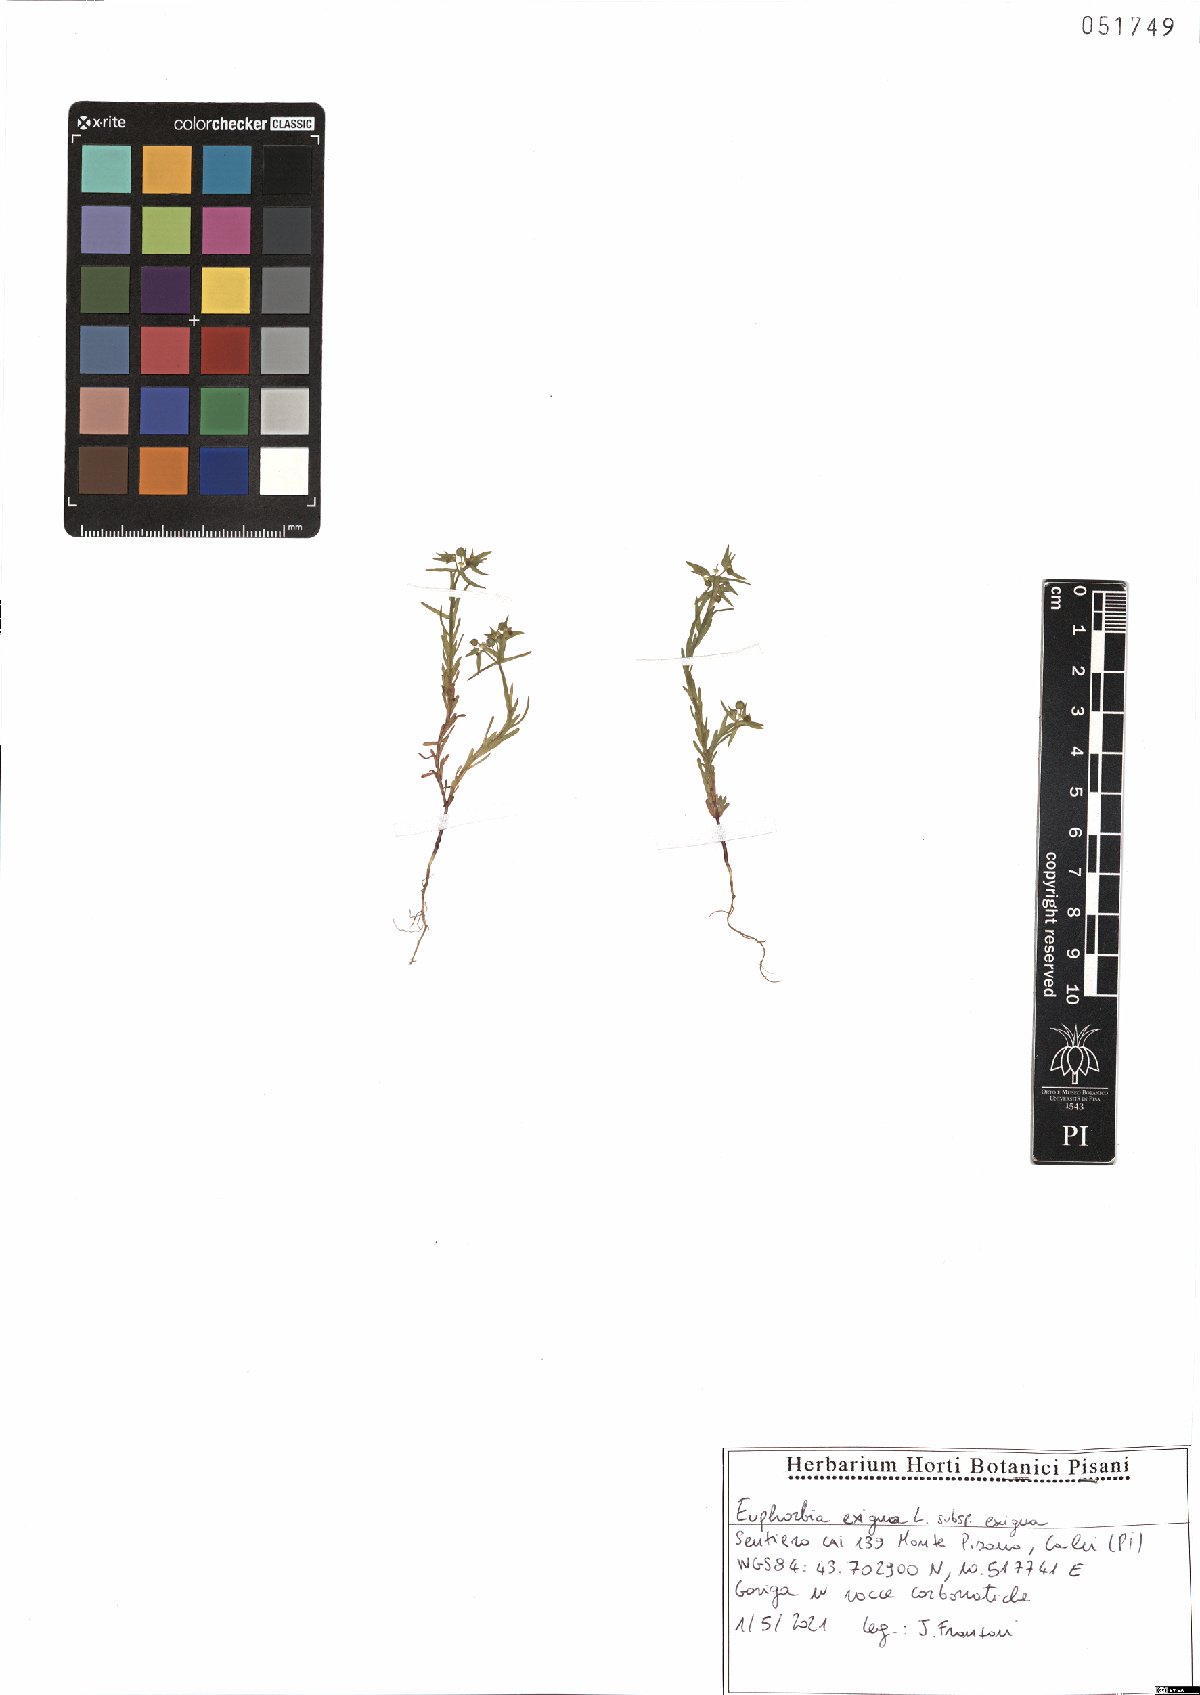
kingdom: Plantae
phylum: Tracheophyta
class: Magnoliopsida
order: Malpighiales
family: Euphorbiaceae
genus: Euphorbia
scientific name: Euphorbia exigua
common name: Dwarf spurge
